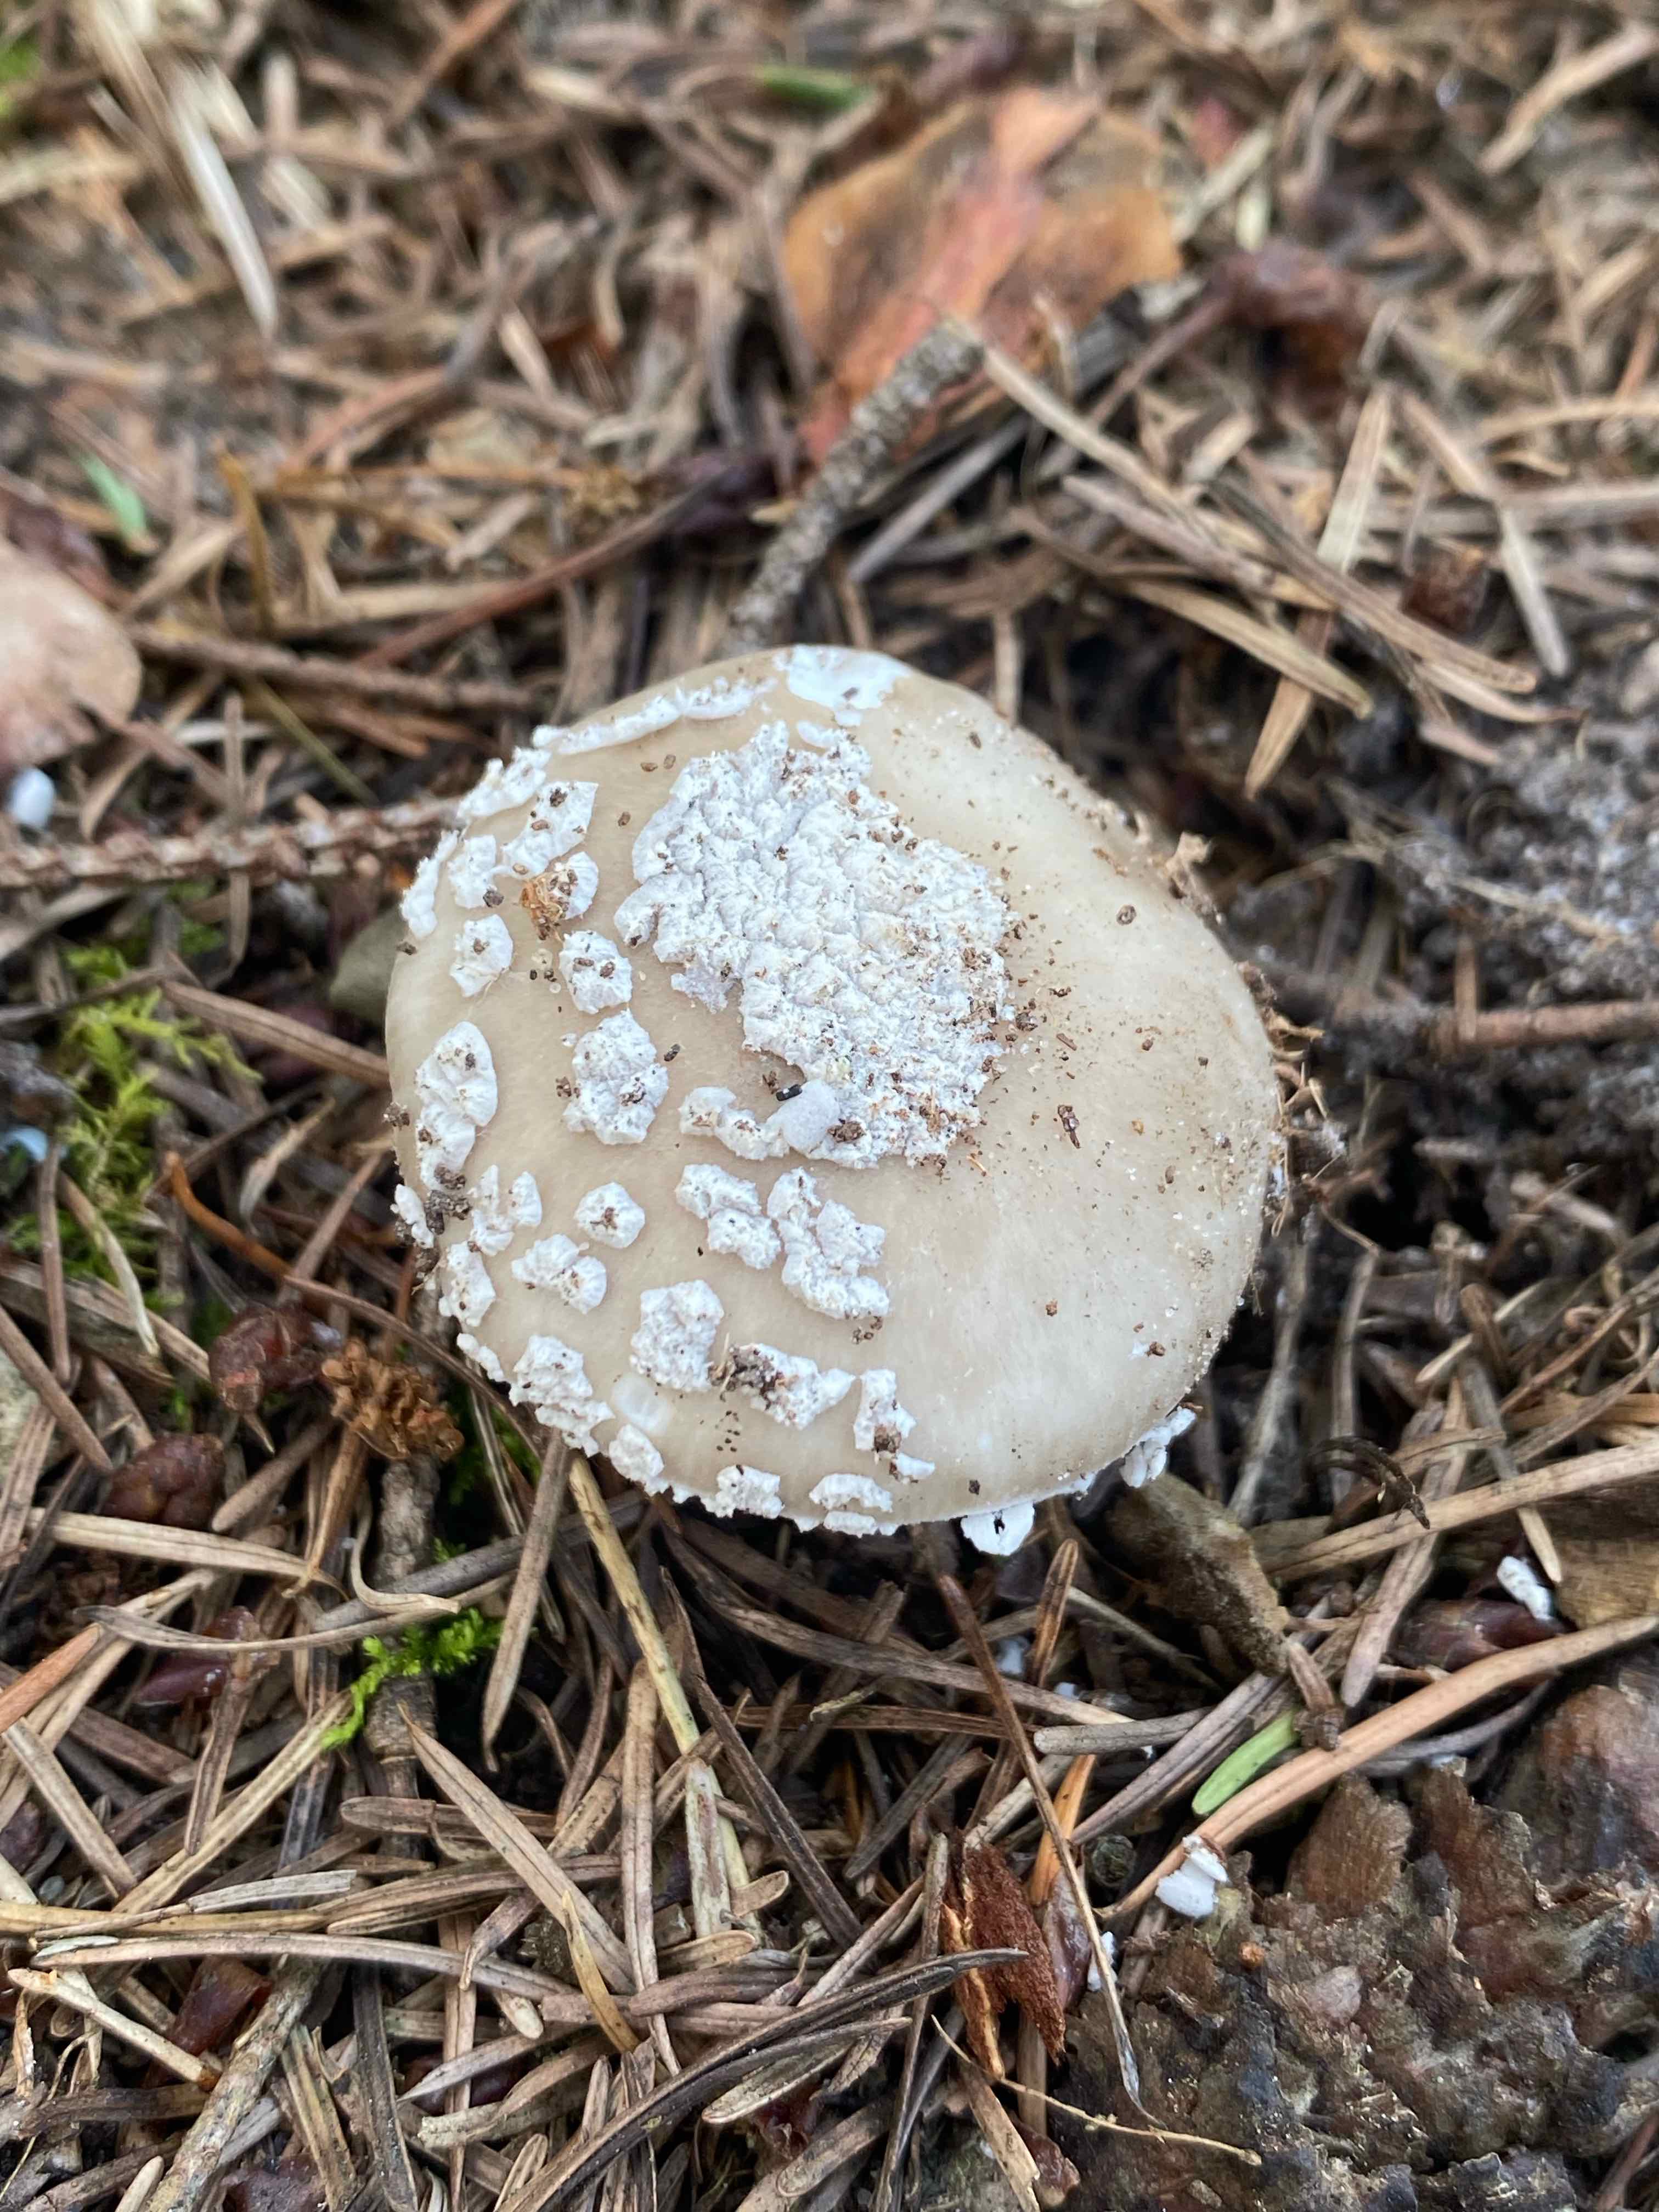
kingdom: Fungi
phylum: Basidiomycota
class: Agaricomycetes
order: Agaricales
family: Amanitaceae
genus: Amanita
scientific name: Amanita
